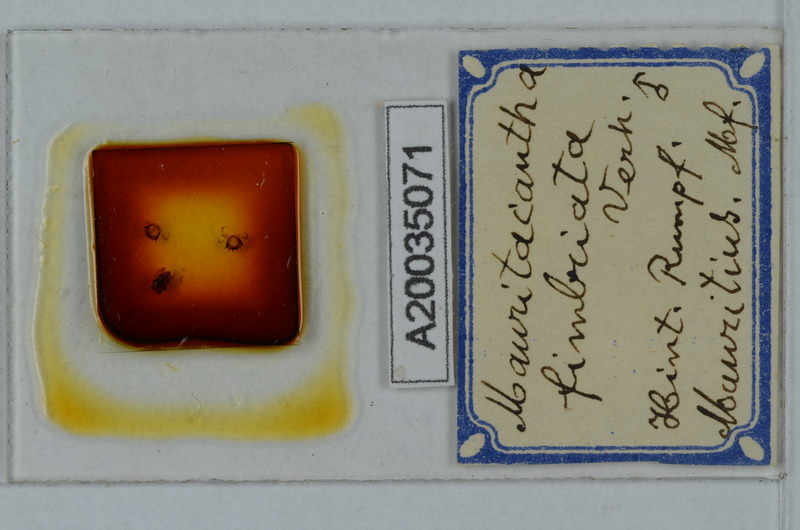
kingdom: Animalia
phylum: Arthropoda
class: Diplopoda
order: Polydesmida
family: Trichopolydesmidae
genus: Mauritacantha
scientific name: Mauritacantha fimbriata
